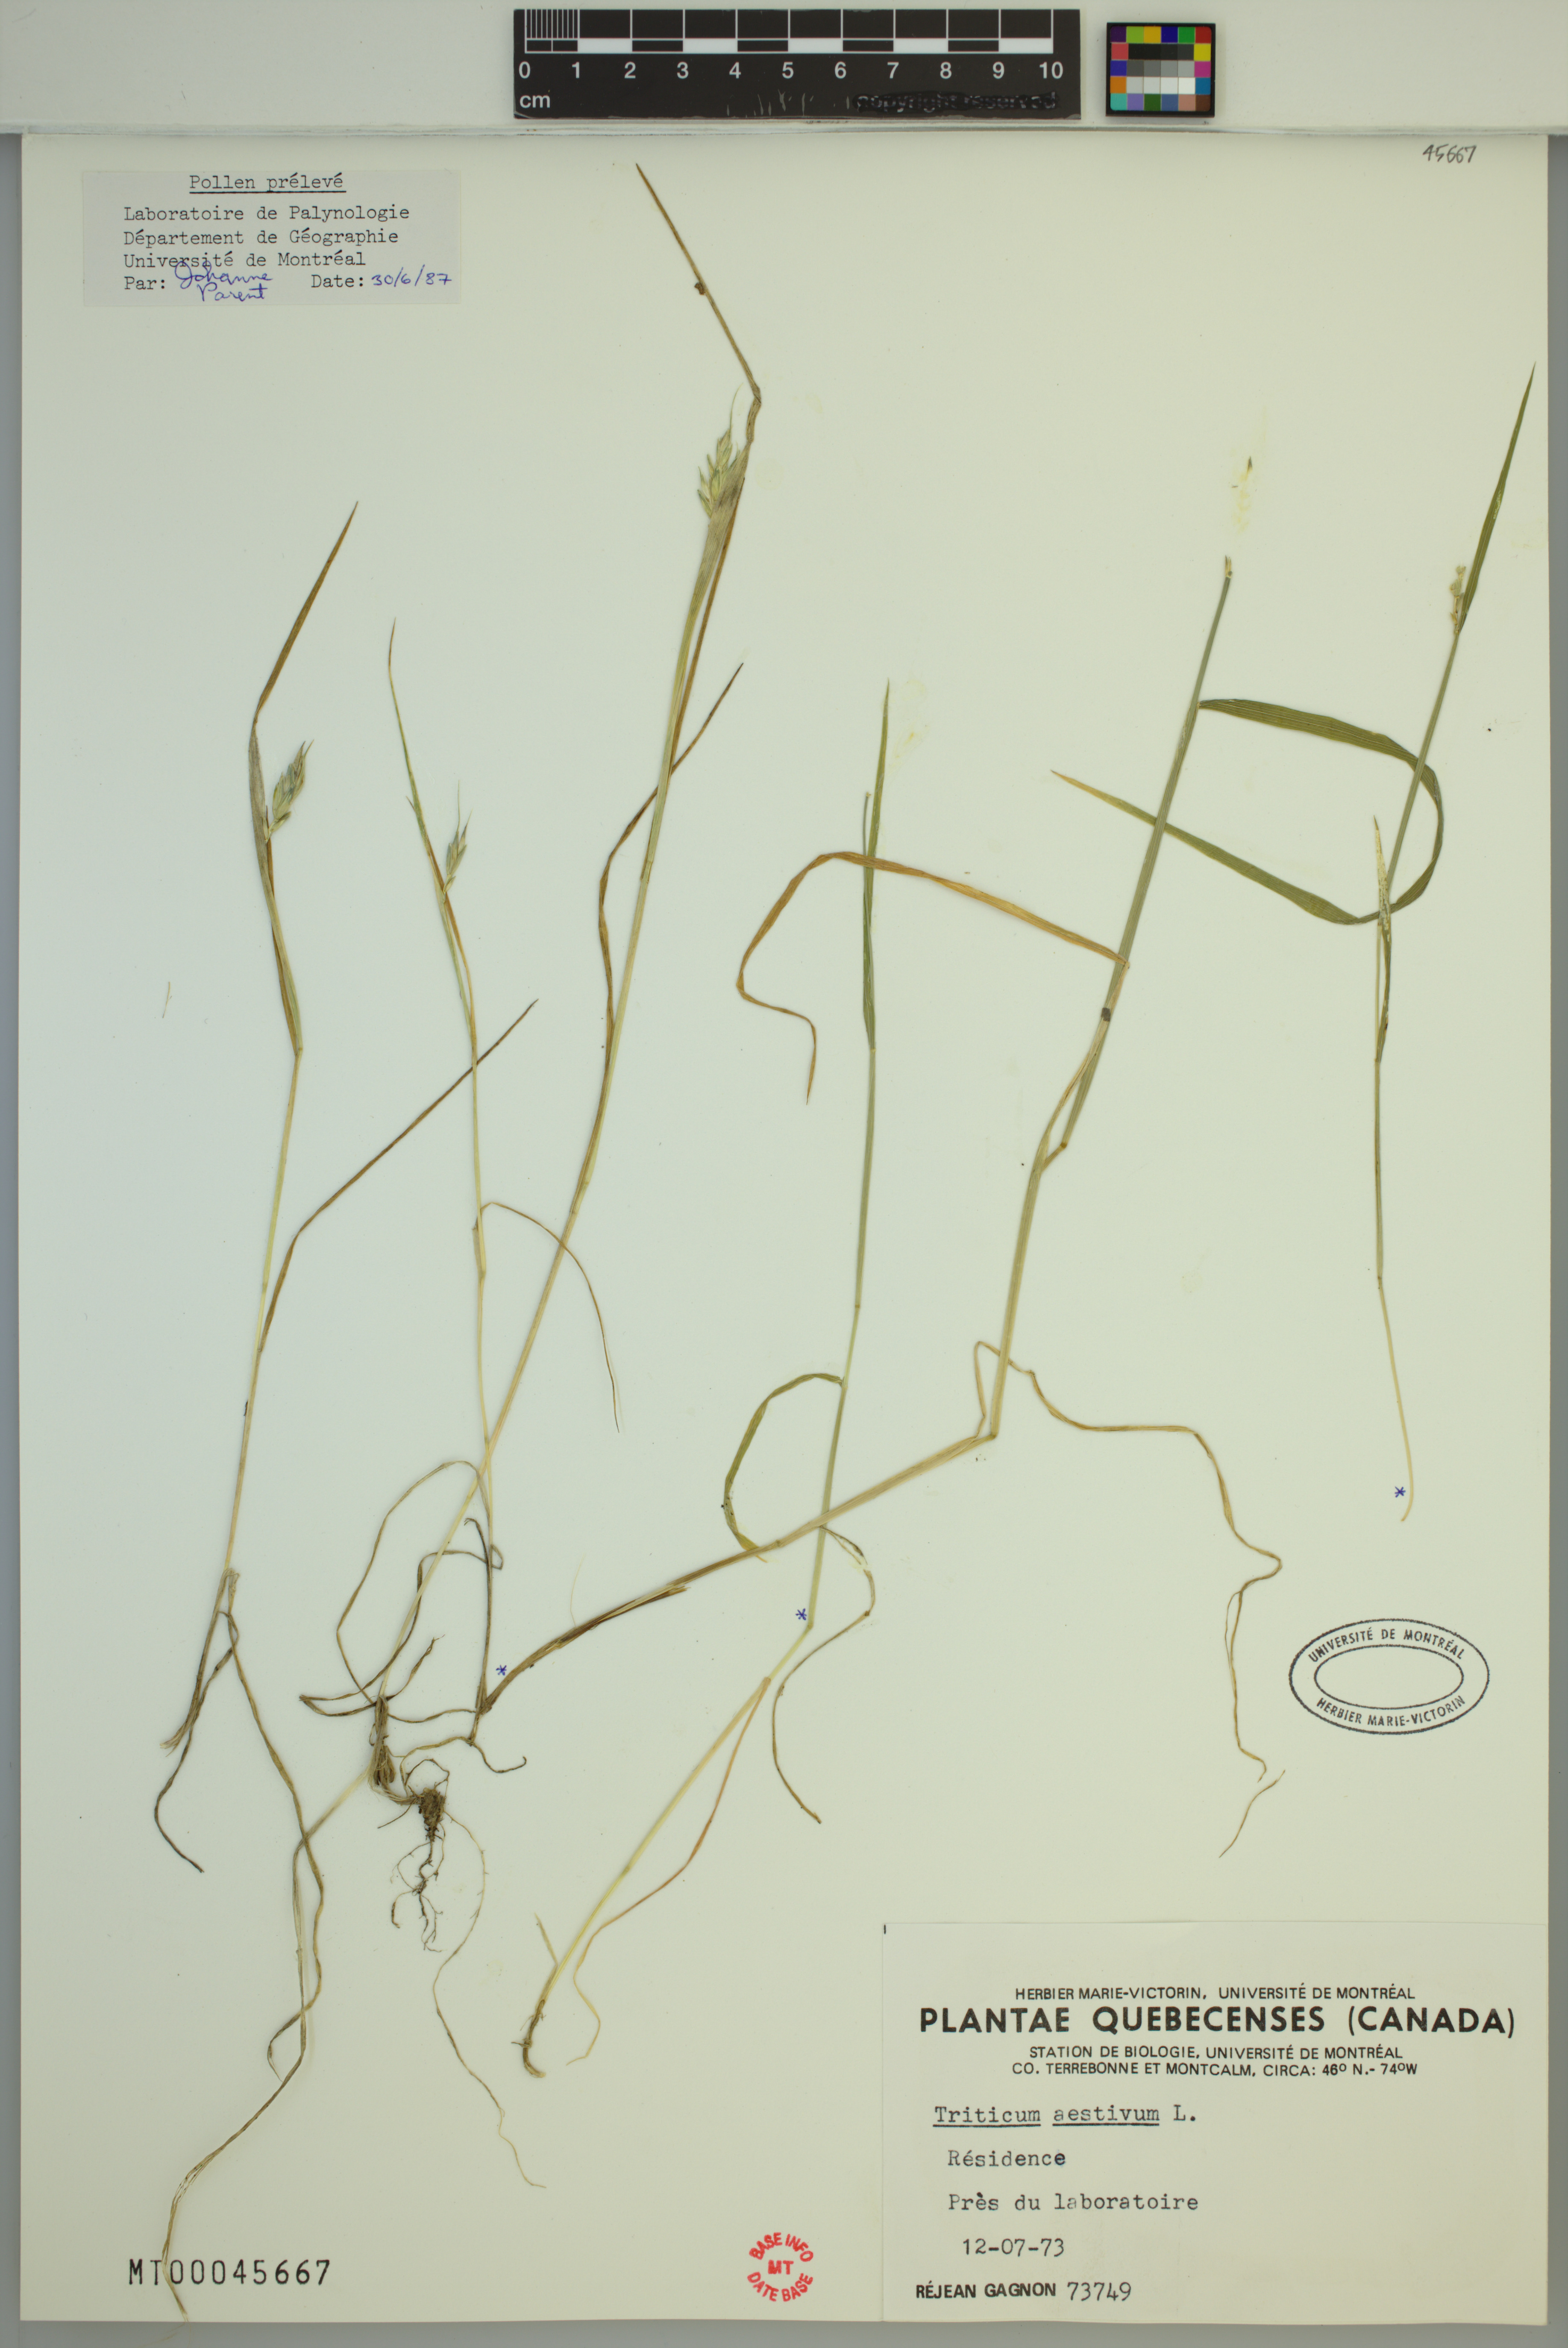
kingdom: Plantae
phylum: Tracheophyta
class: Liliopsida
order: Poales
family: Poaceae
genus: Triticum
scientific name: Triticum aestivum
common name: Common wheat
